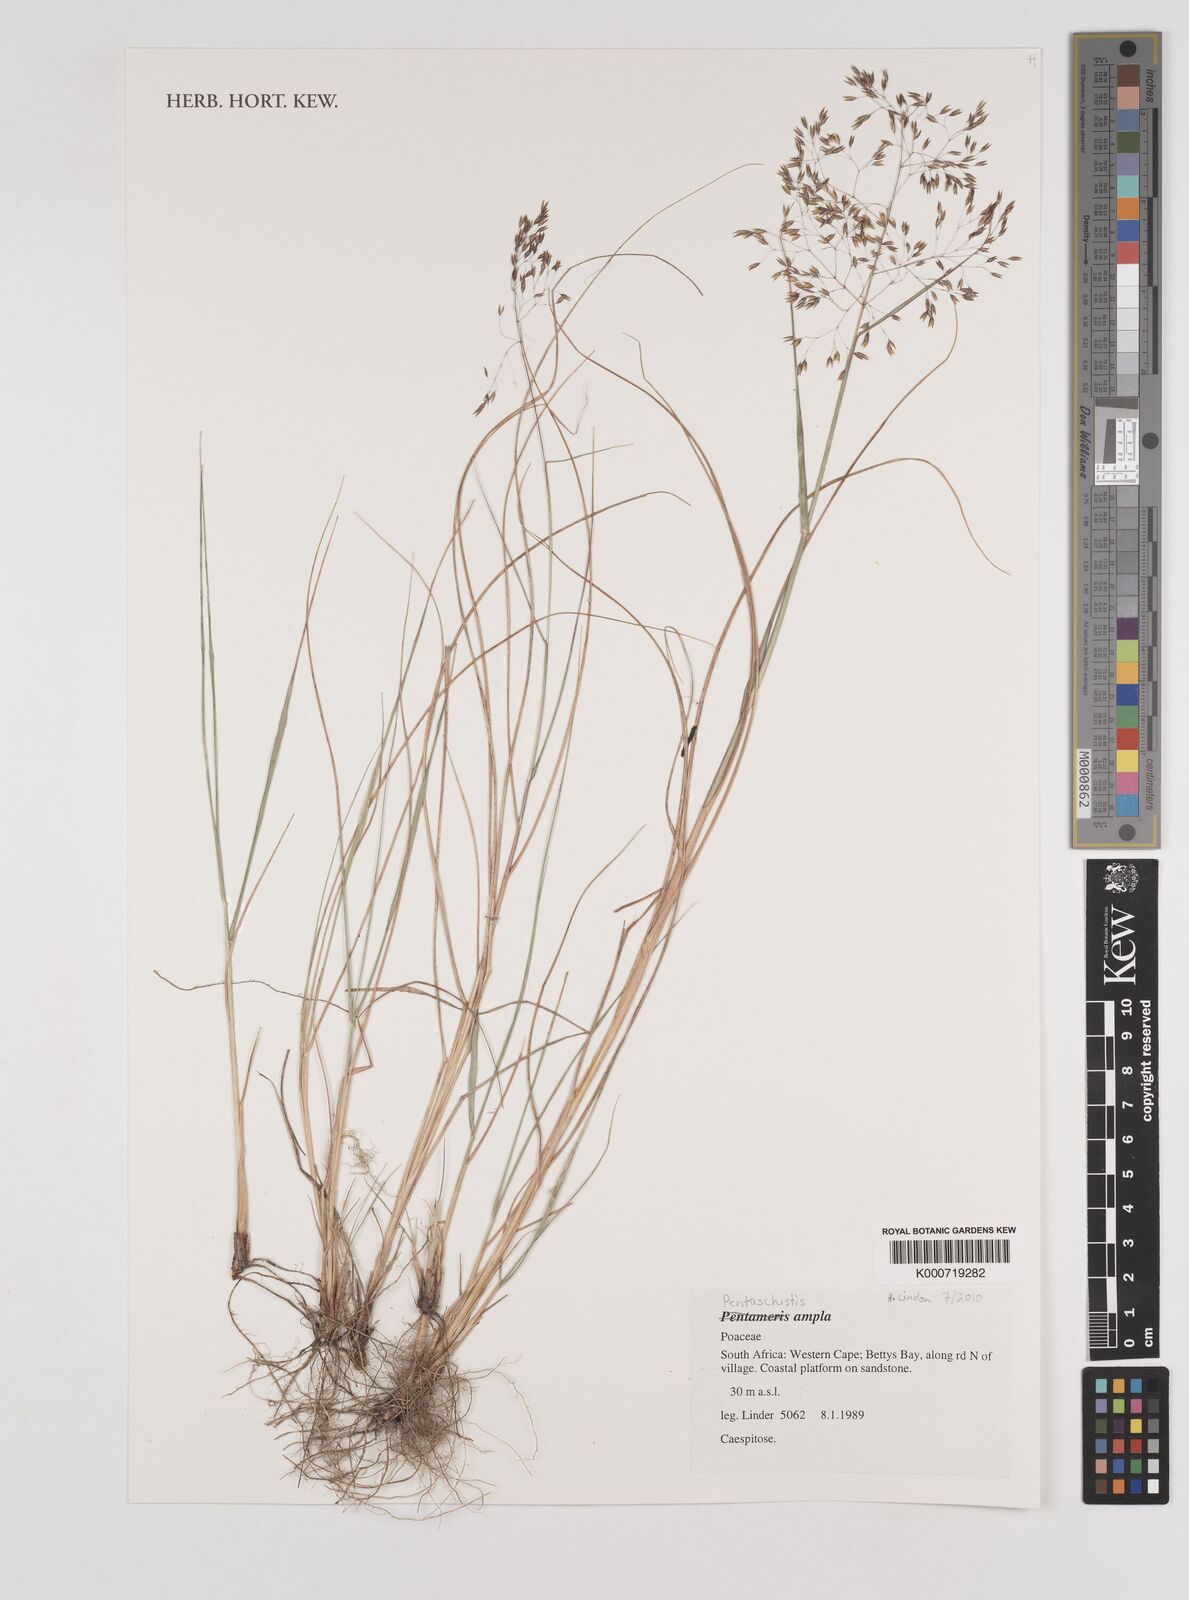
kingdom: Plantae
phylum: Tracheophyta
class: Liliopsida
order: Poales
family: Poaceae
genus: Pentameris
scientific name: Pentameris ampla
